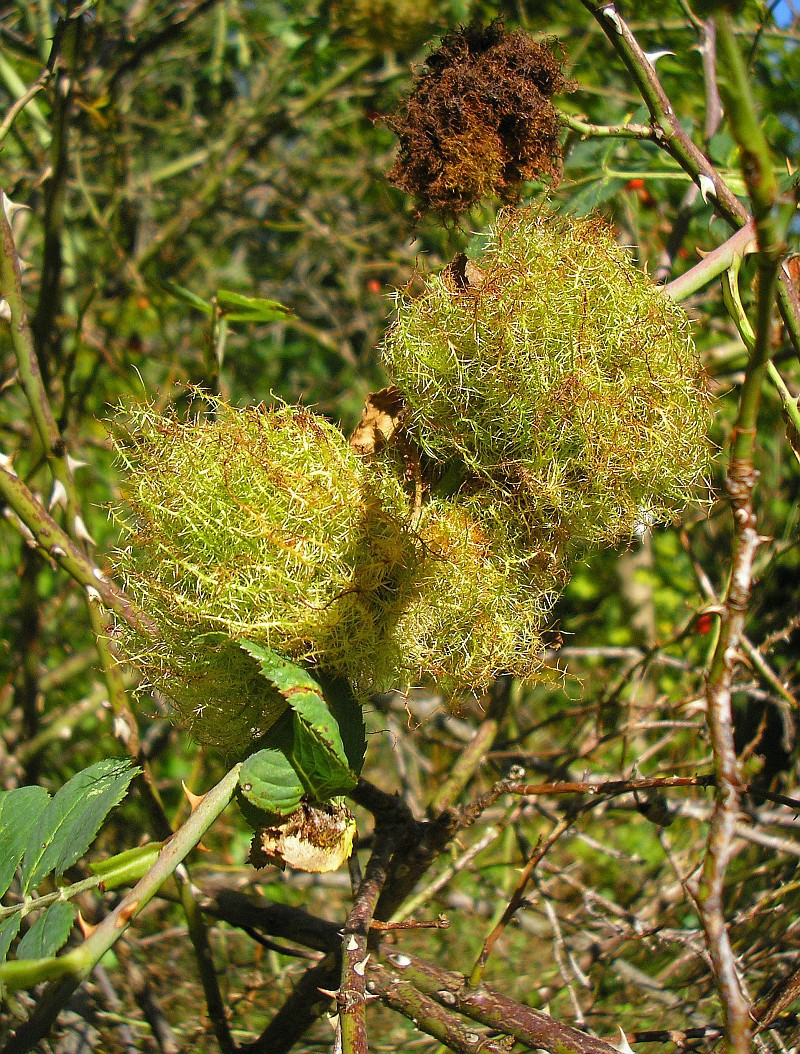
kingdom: Animalia
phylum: Arthropoda
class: Insecta
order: Hymenoptera
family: Cynipidae
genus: Diplolepis
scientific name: Diplolepis rosae
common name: Bedeguar gall
